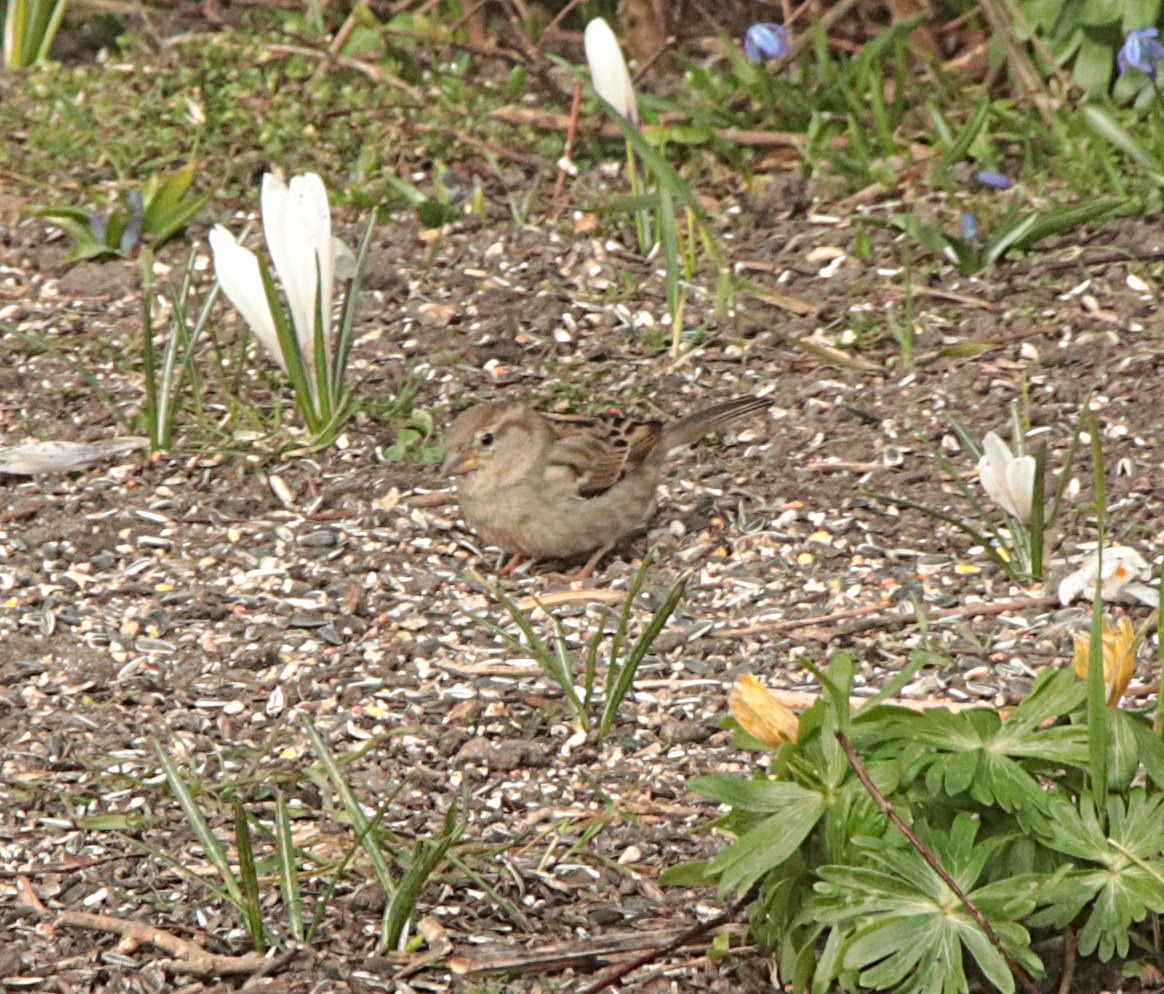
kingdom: Animalia
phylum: Chordata
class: Aves
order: Passeriformes
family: Passeridae
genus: Passer
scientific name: Passer domesticus
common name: Gråspurv
